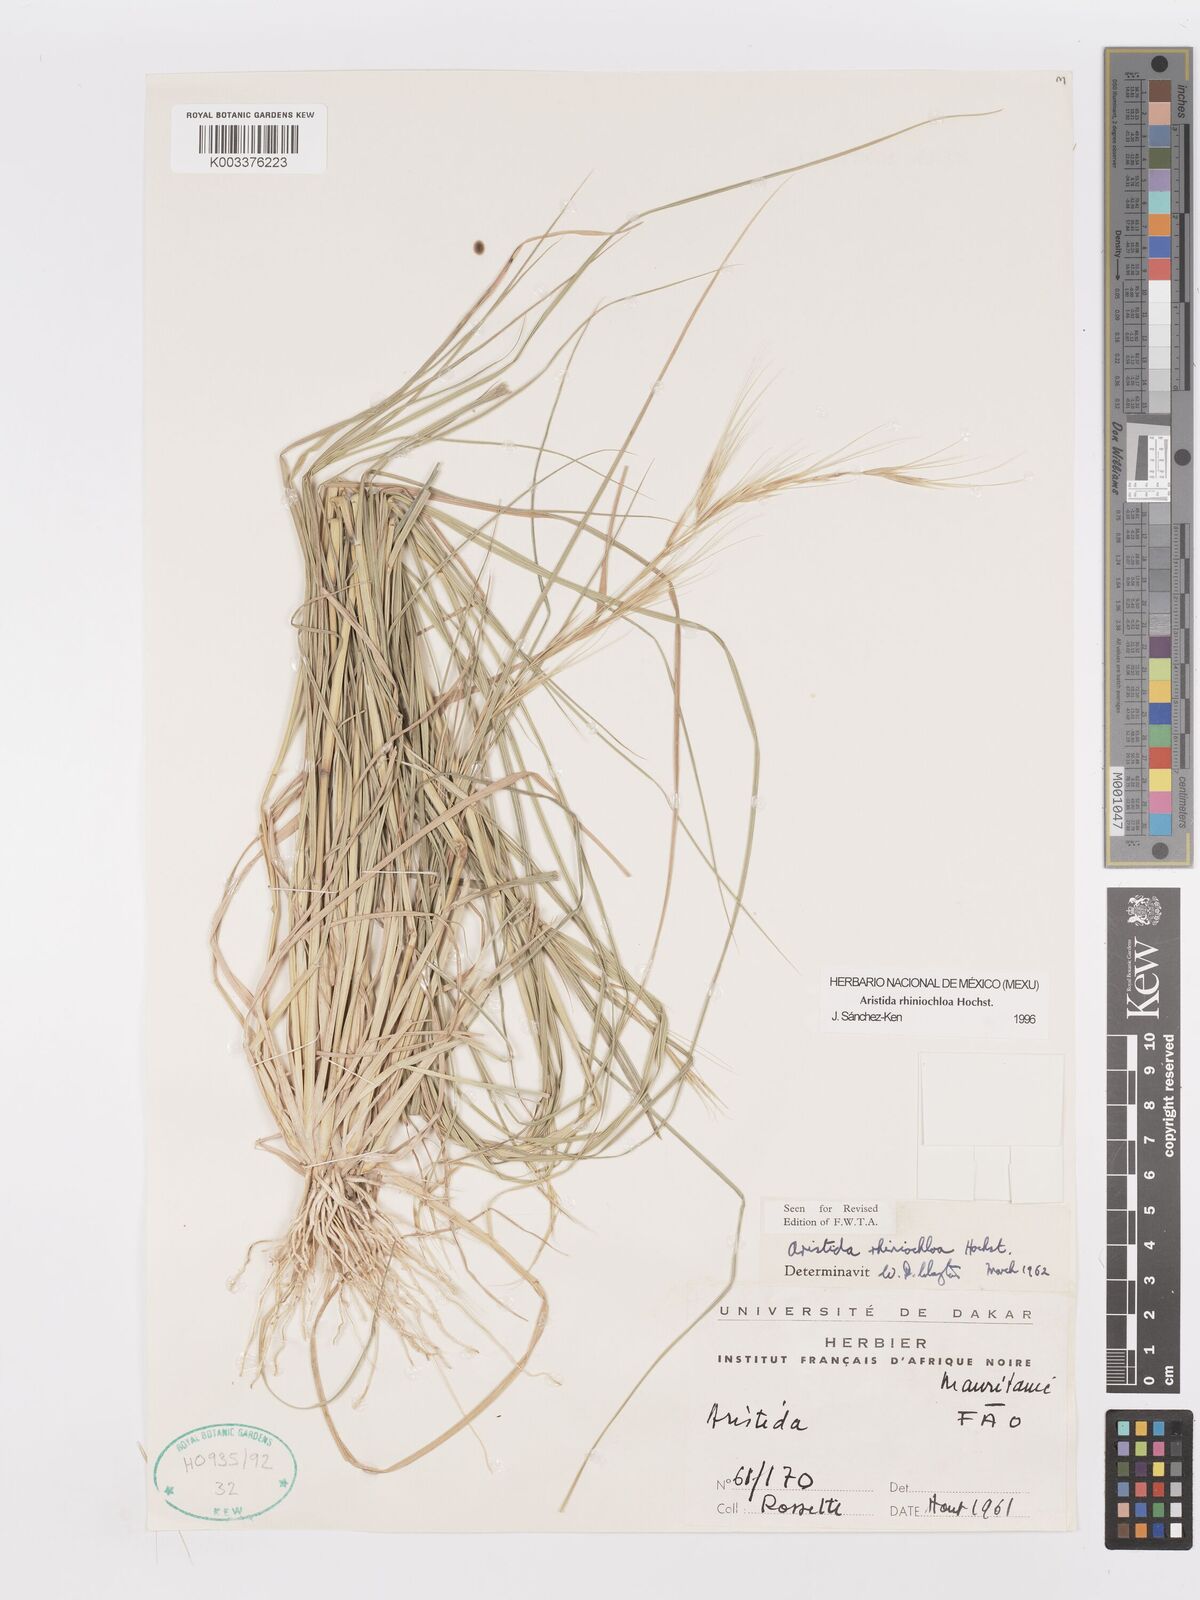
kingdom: Plantae
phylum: Tracheophyta
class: Liliopsida
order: Poales
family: Poaceae
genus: Aristida
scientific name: Aristida rhiniochloa
